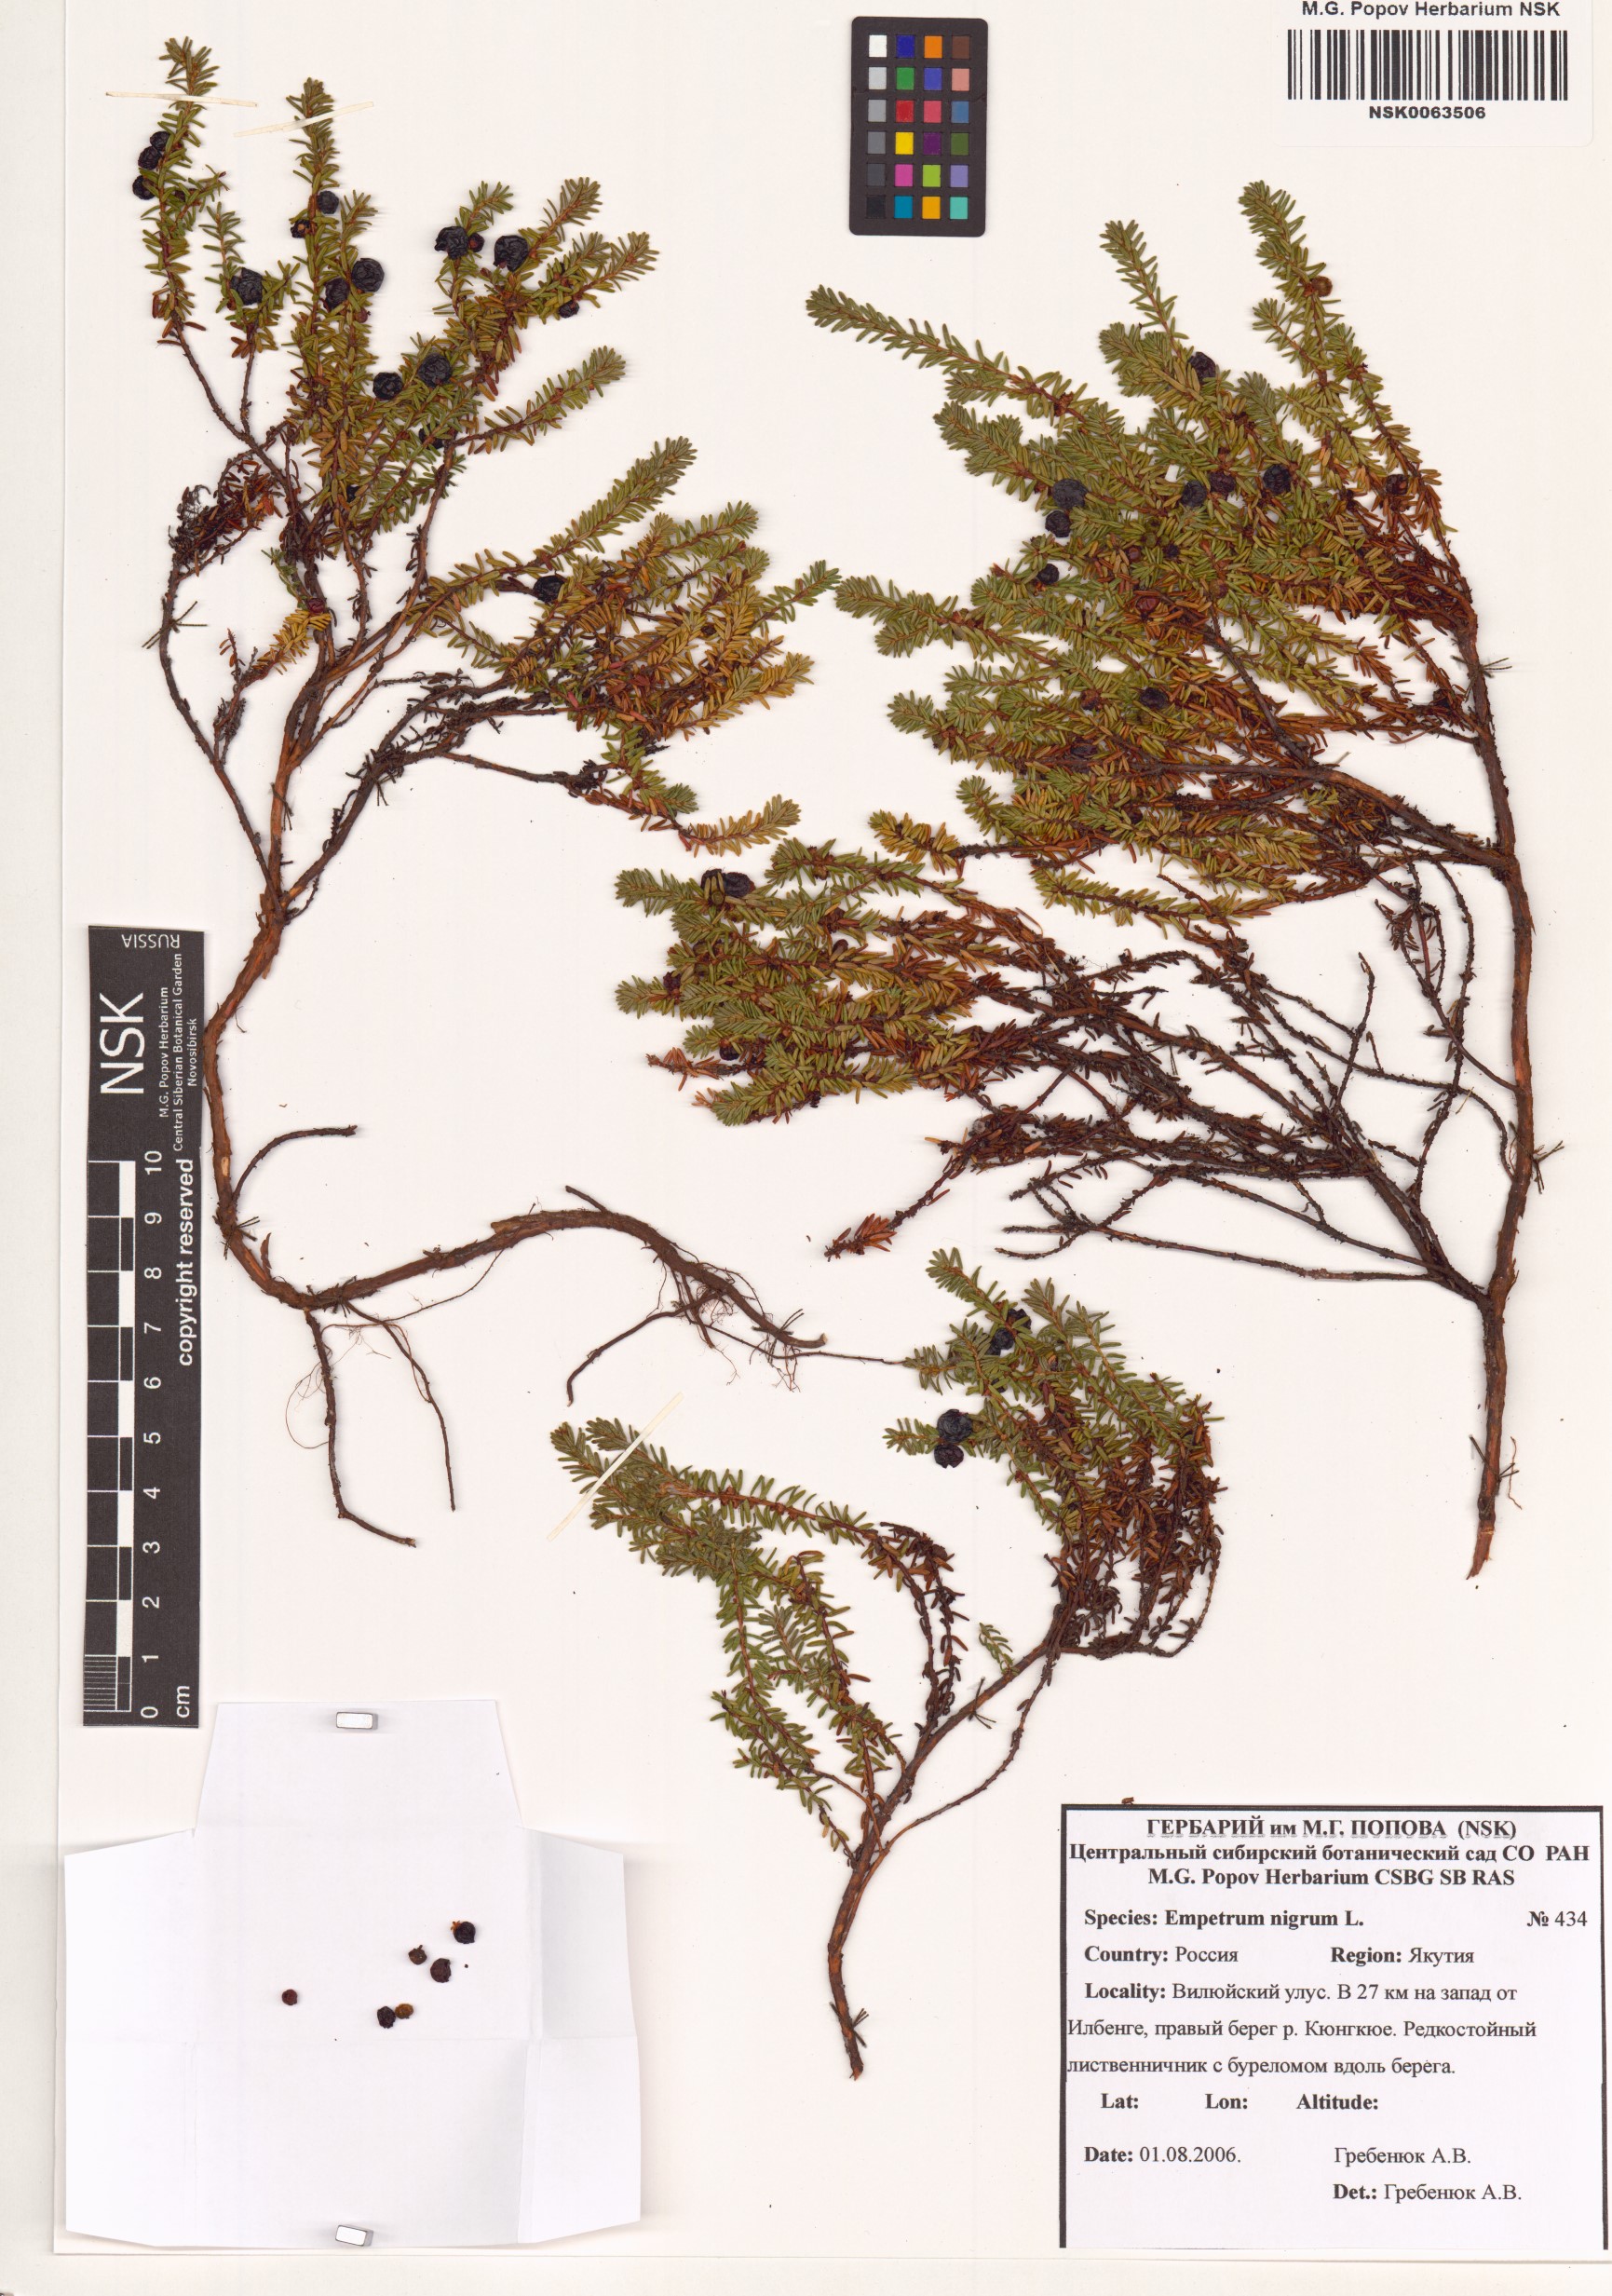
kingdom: Plantae
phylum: Tracheophyta
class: Magnoliopsida
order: Ericales
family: Ericaceae
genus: Empetrum
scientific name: Empetrum nigrum
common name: Black crowberry
